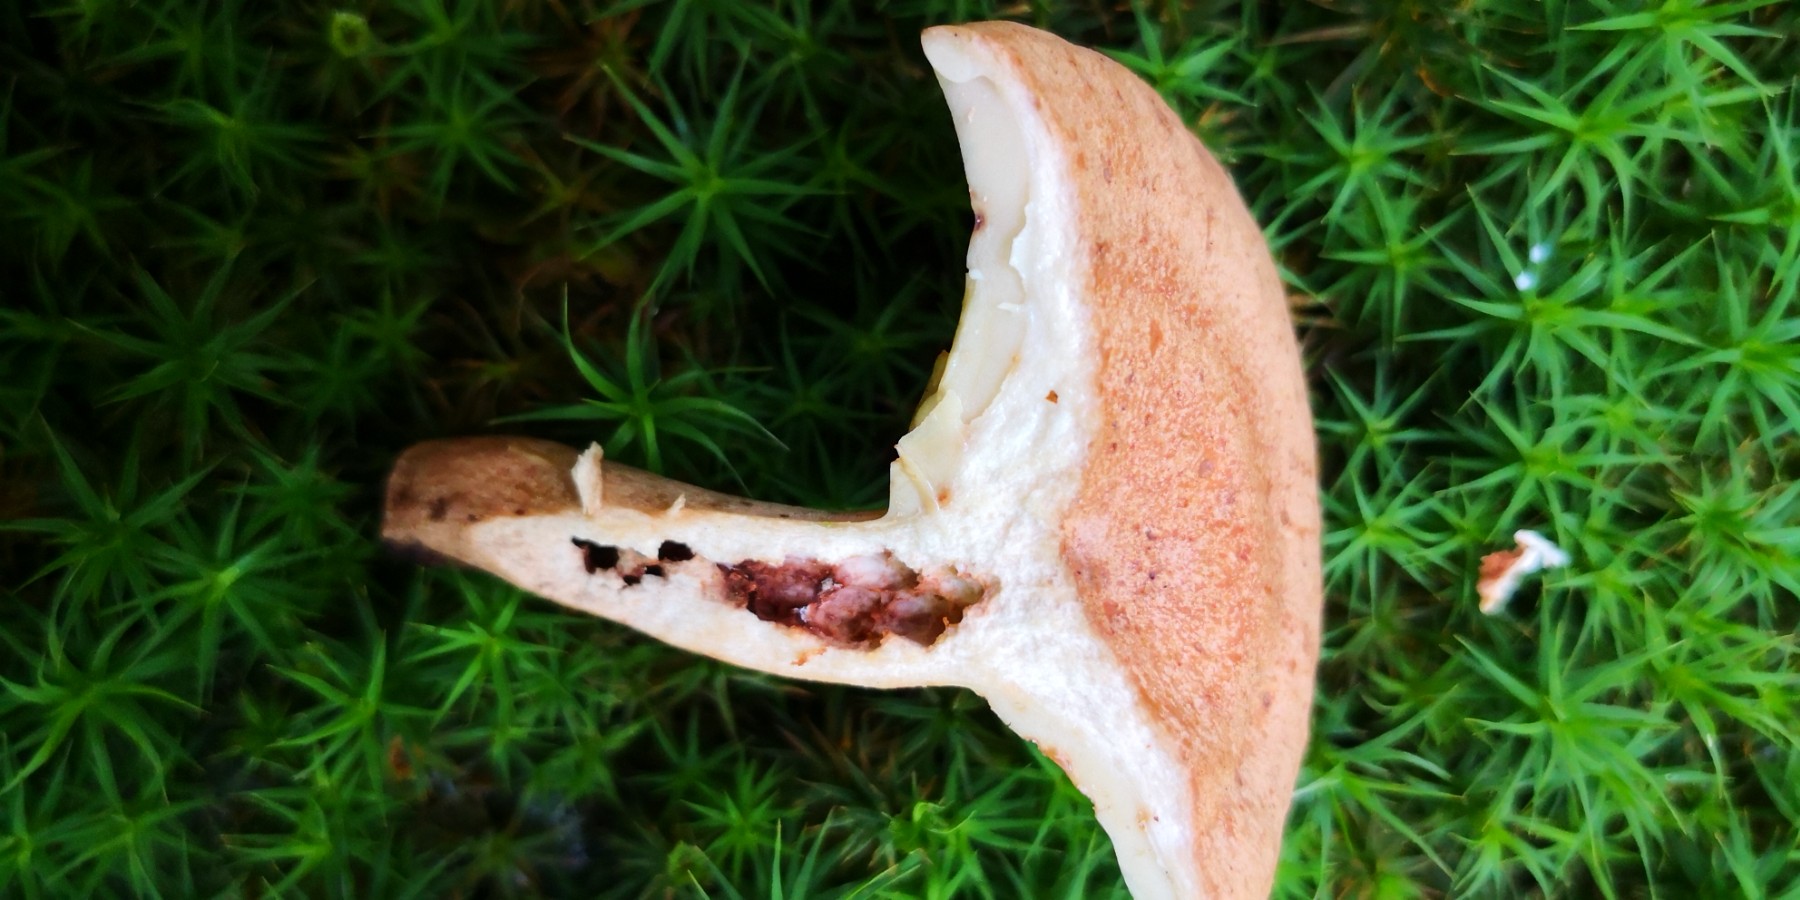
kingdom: Fungi
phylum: Basidiomycota
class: Agaricomycetes
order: Russulales
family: Russulaceae
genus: Lactarius
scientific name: Lactarius
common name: mælkehat
